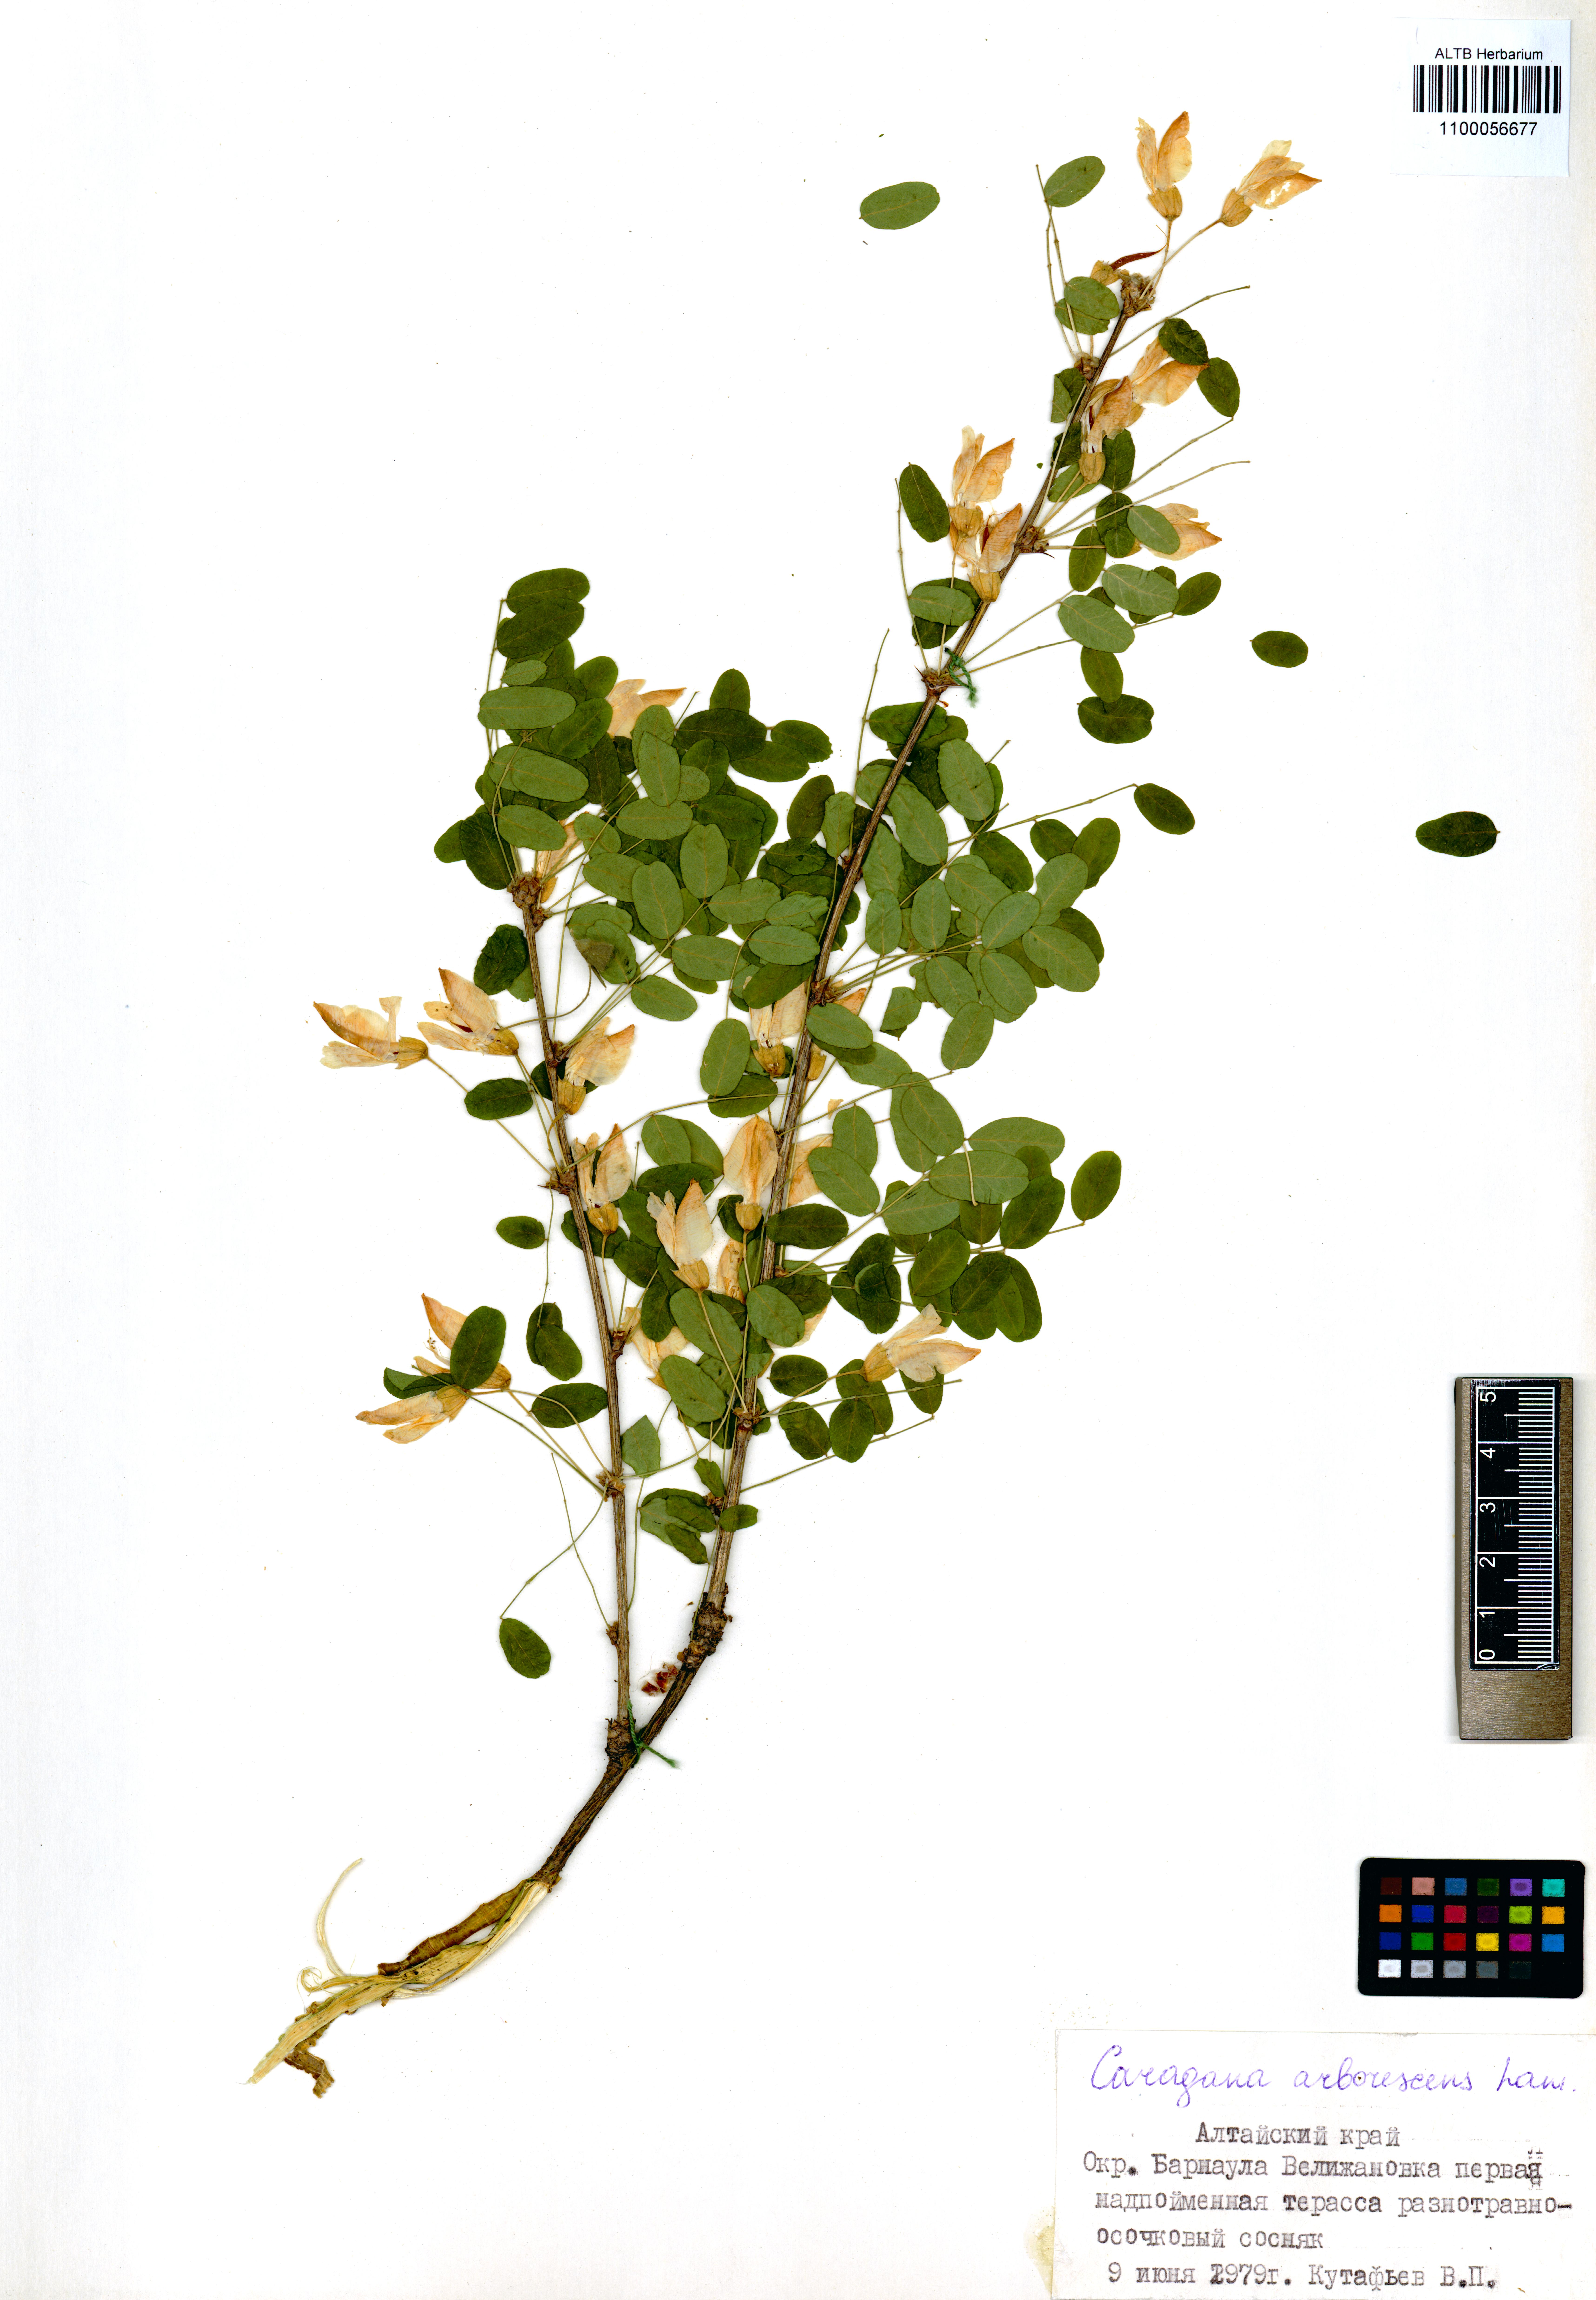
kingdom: Plantae
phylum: Tracheophyta
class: Magnoliopsida
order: Fabales
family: Fabaceae
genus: Caragana
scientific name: Caragana arborescens
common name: Siberian peashrub
